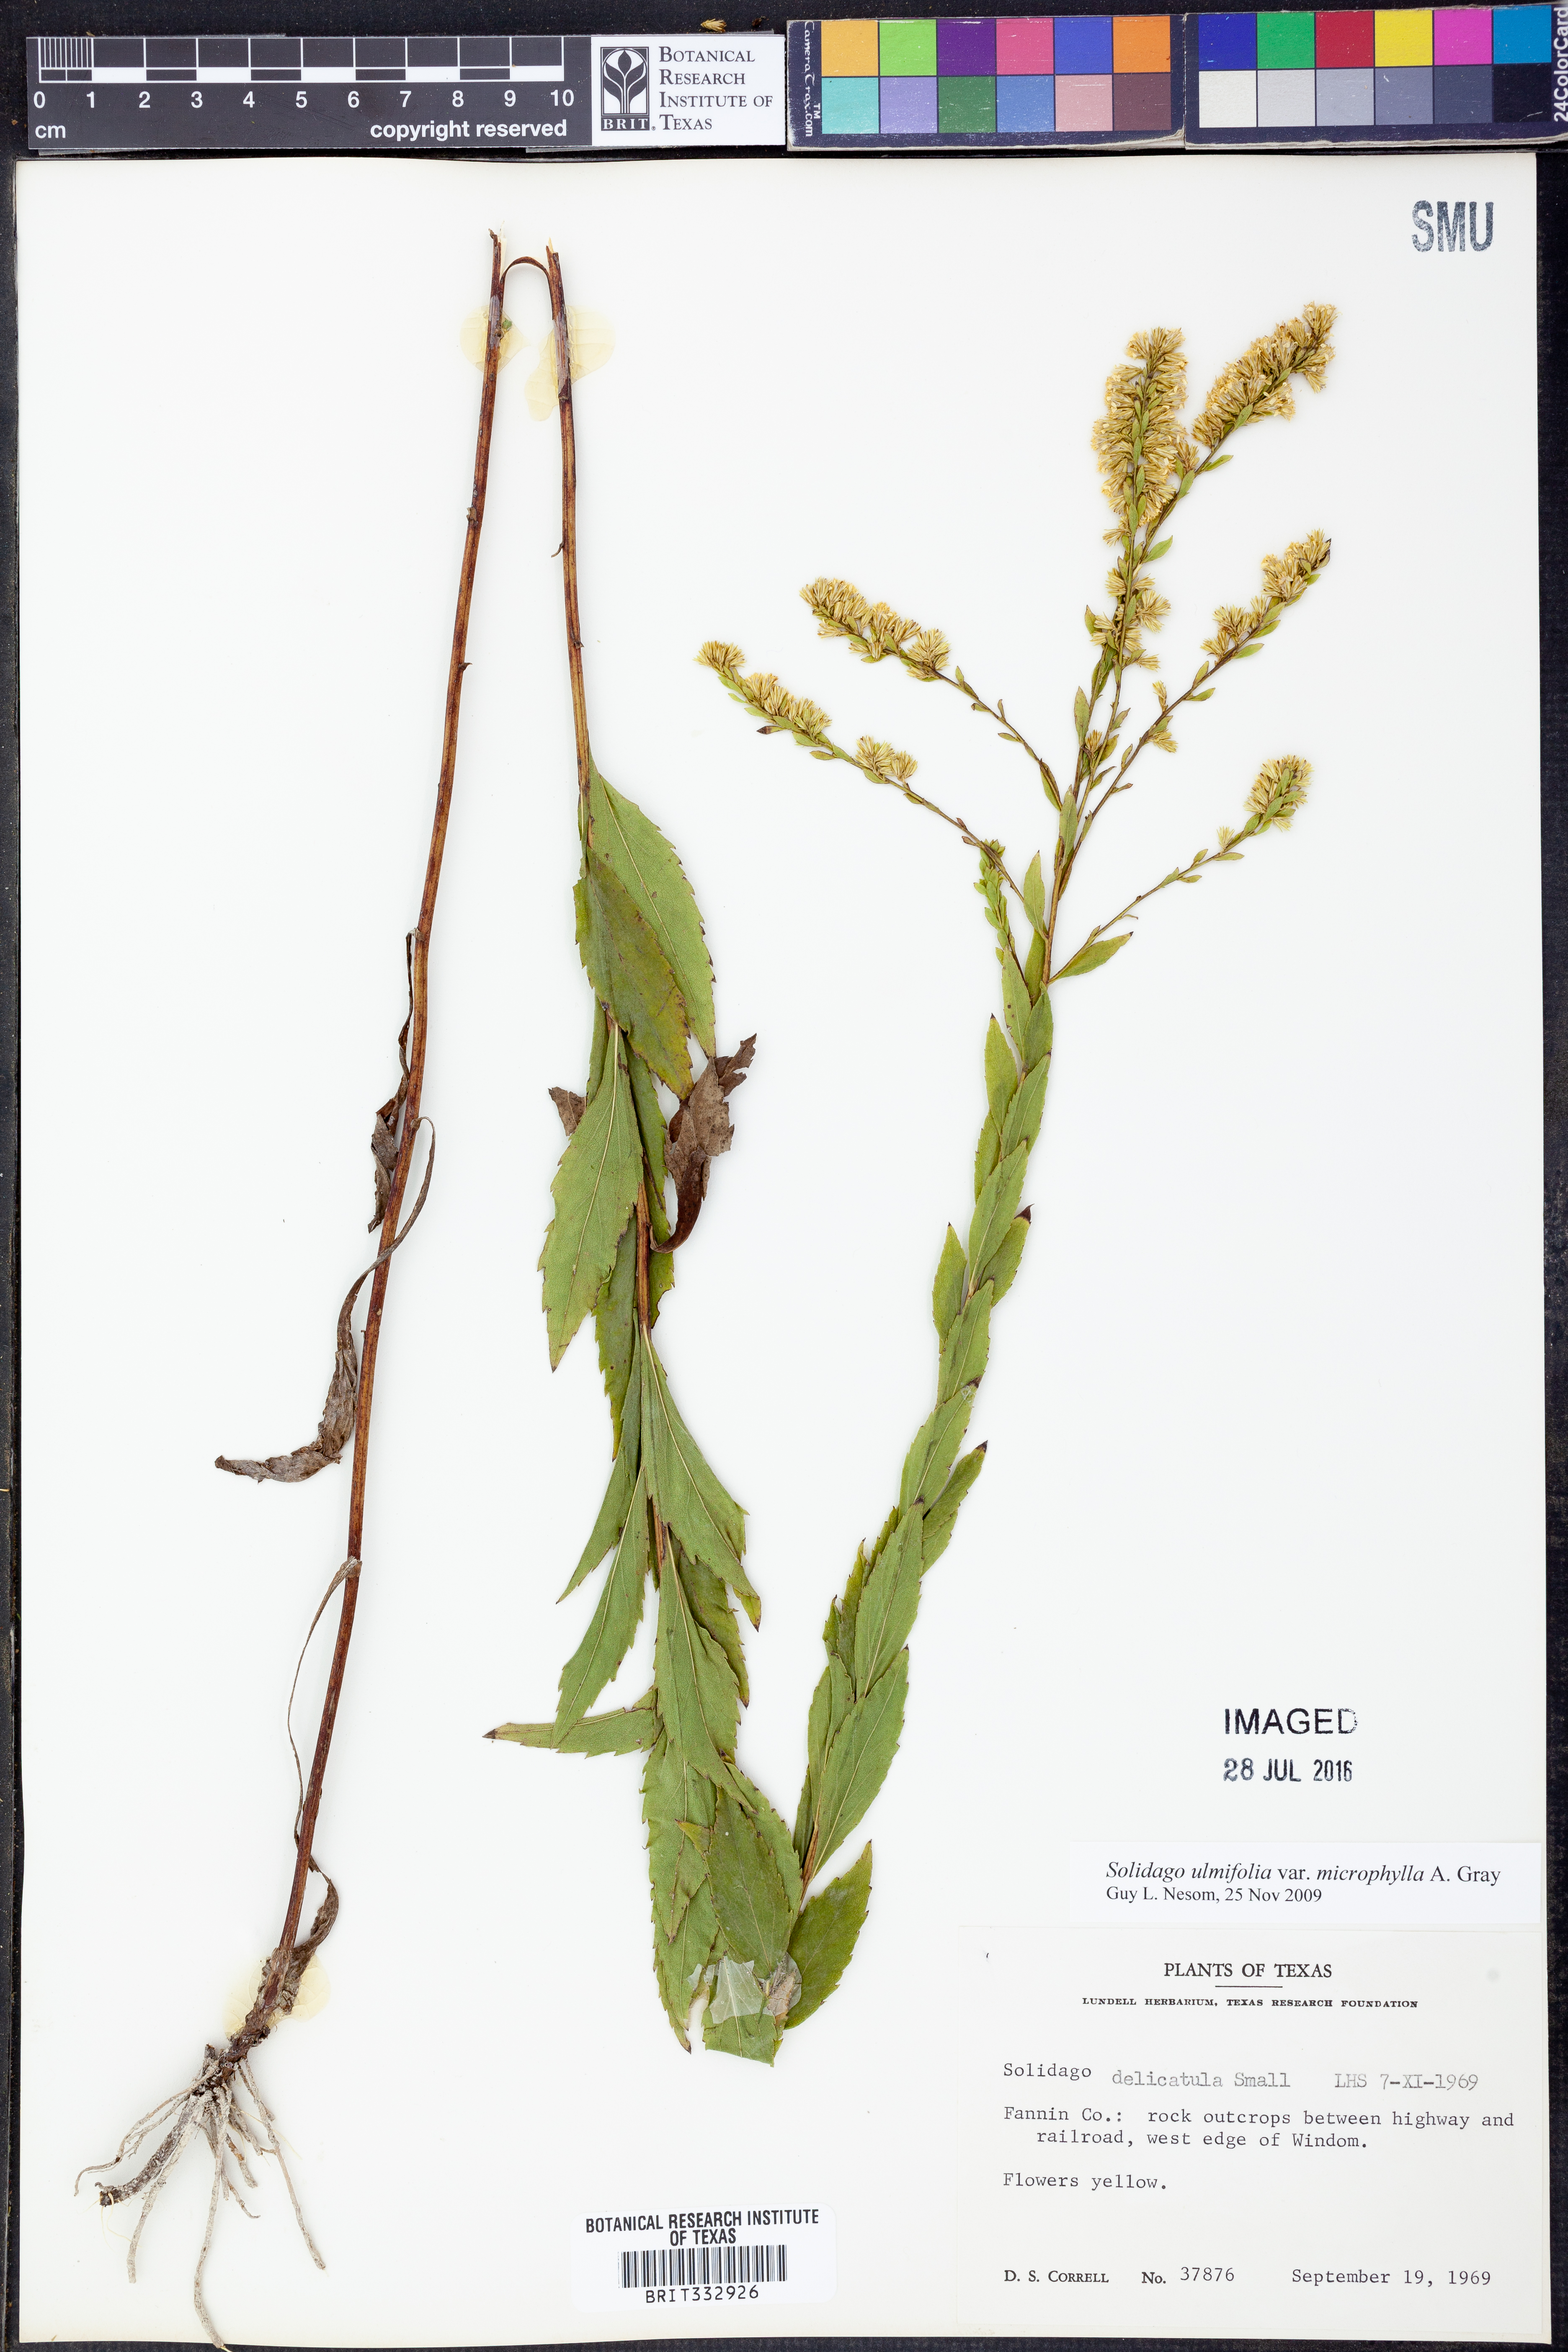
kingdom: Plantae
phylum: Tracheophyta
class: Magnoliopsida
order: Asterales
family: Asteraceae
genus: Solidago
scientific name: Solidago delicatula
